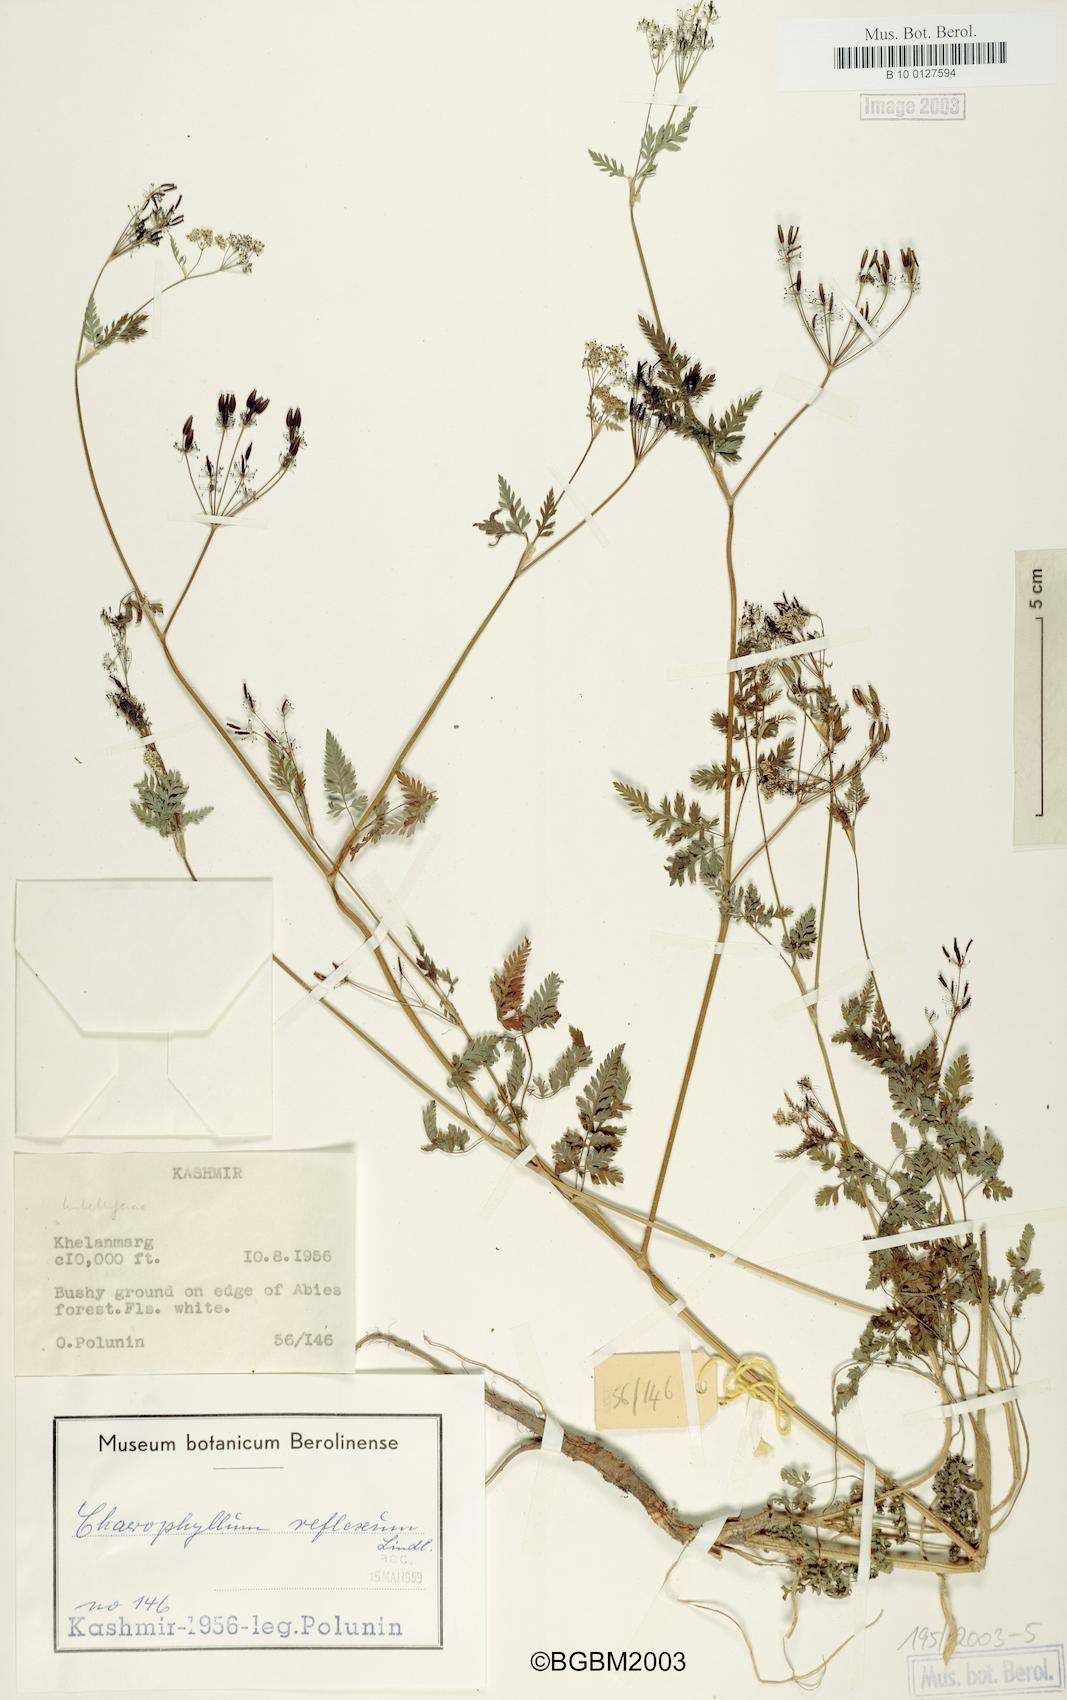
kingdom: Plantae
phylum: Tracheophyta
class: Magnoliopsida
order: Apiales
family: Apiaceae
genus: Chaerophyllum
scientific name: Chaerophyllum reflexum
